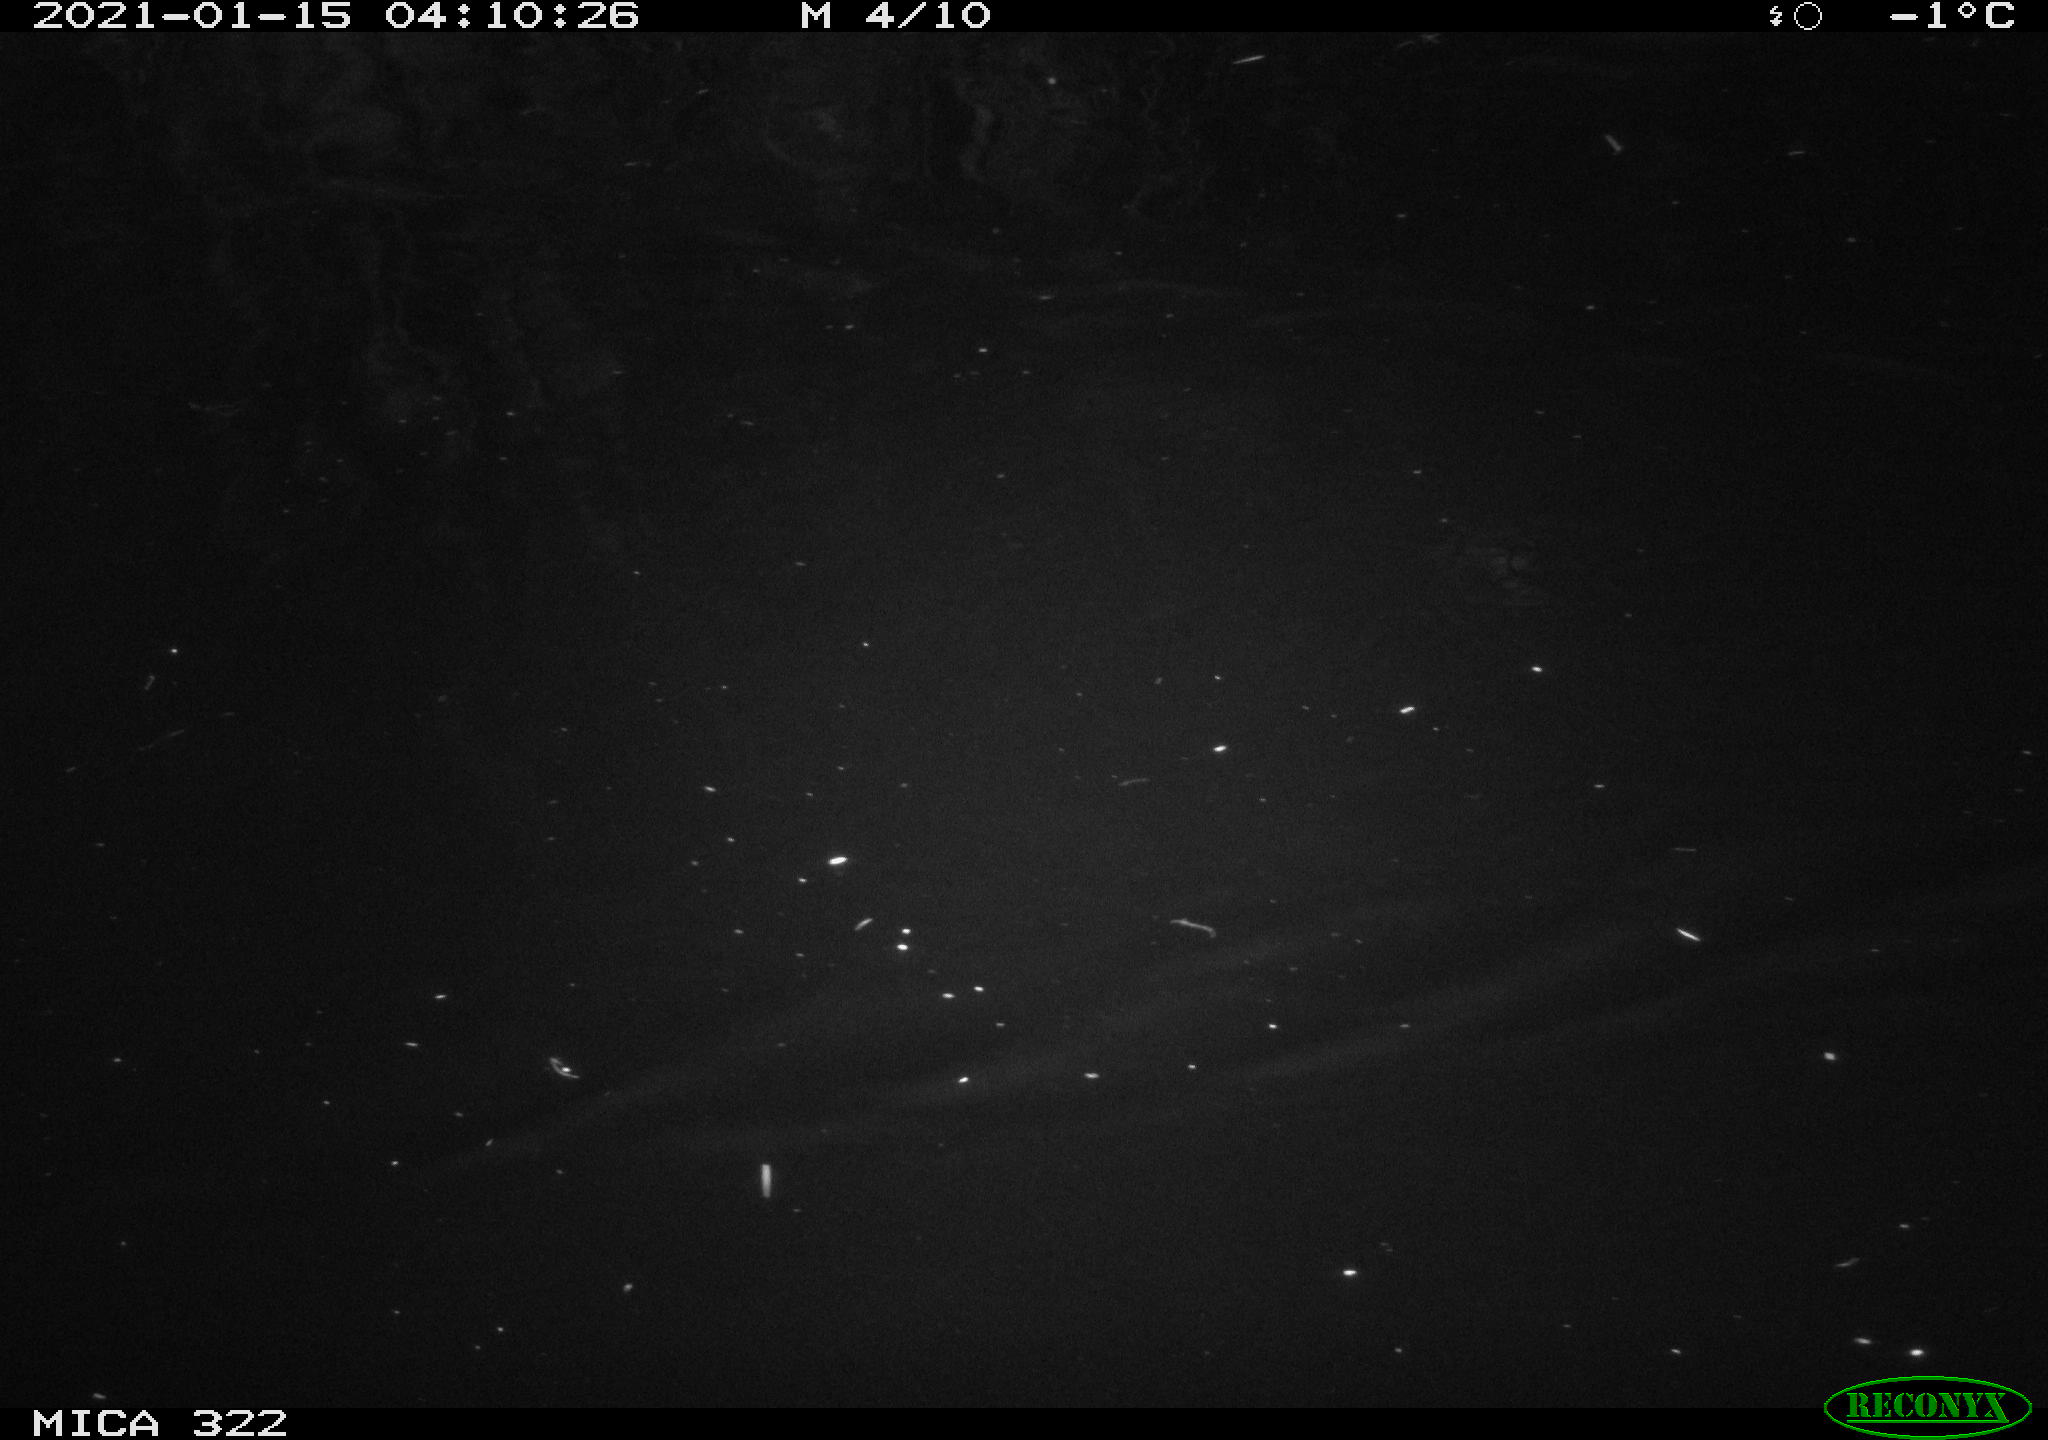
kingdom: Animalia
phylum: Chordata
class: Aves
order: Anseriformes
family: Anatidae
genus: Anas
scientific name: Anas platyrhynchos
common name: Mallard
